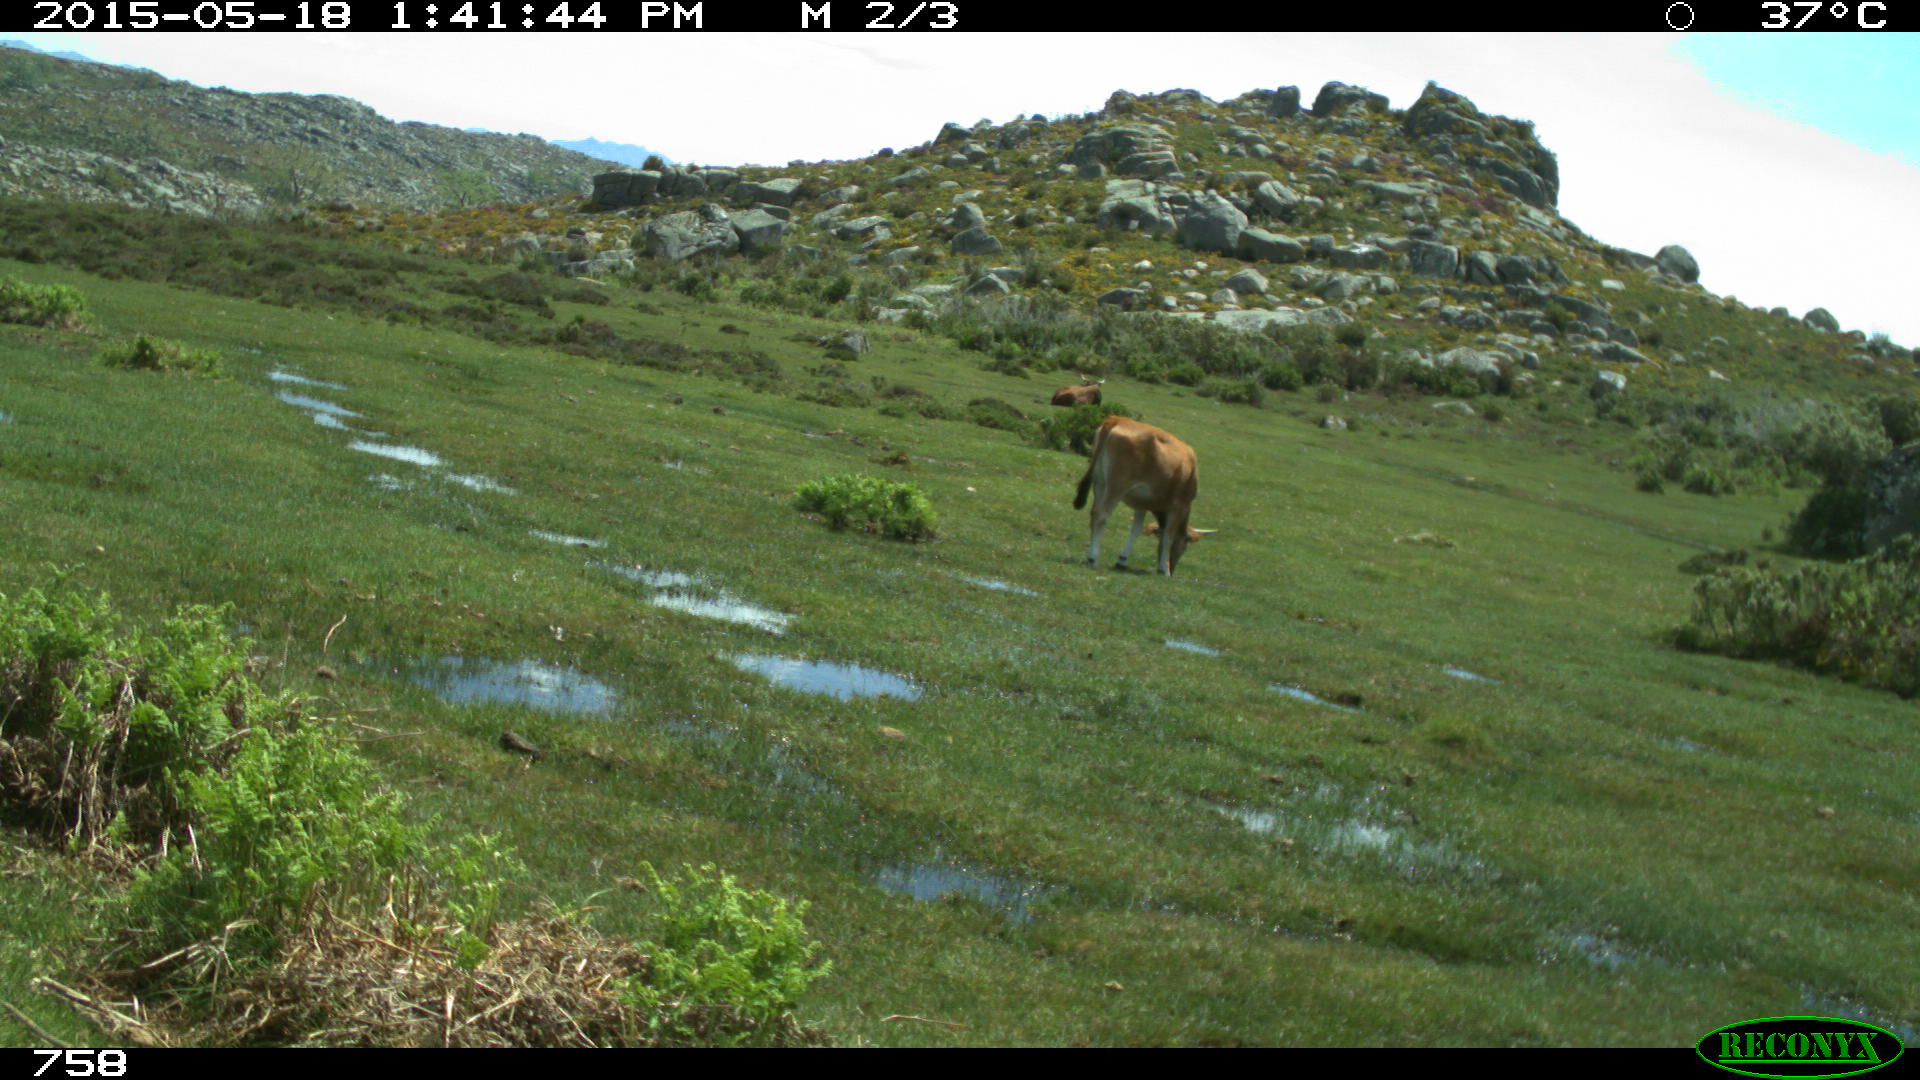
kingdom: Animalia
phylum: Chordata
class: Mammalia
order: Artiodactyla
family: Bovidae
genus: Bos
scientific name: Bos taurus
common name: Domesticated cattle
